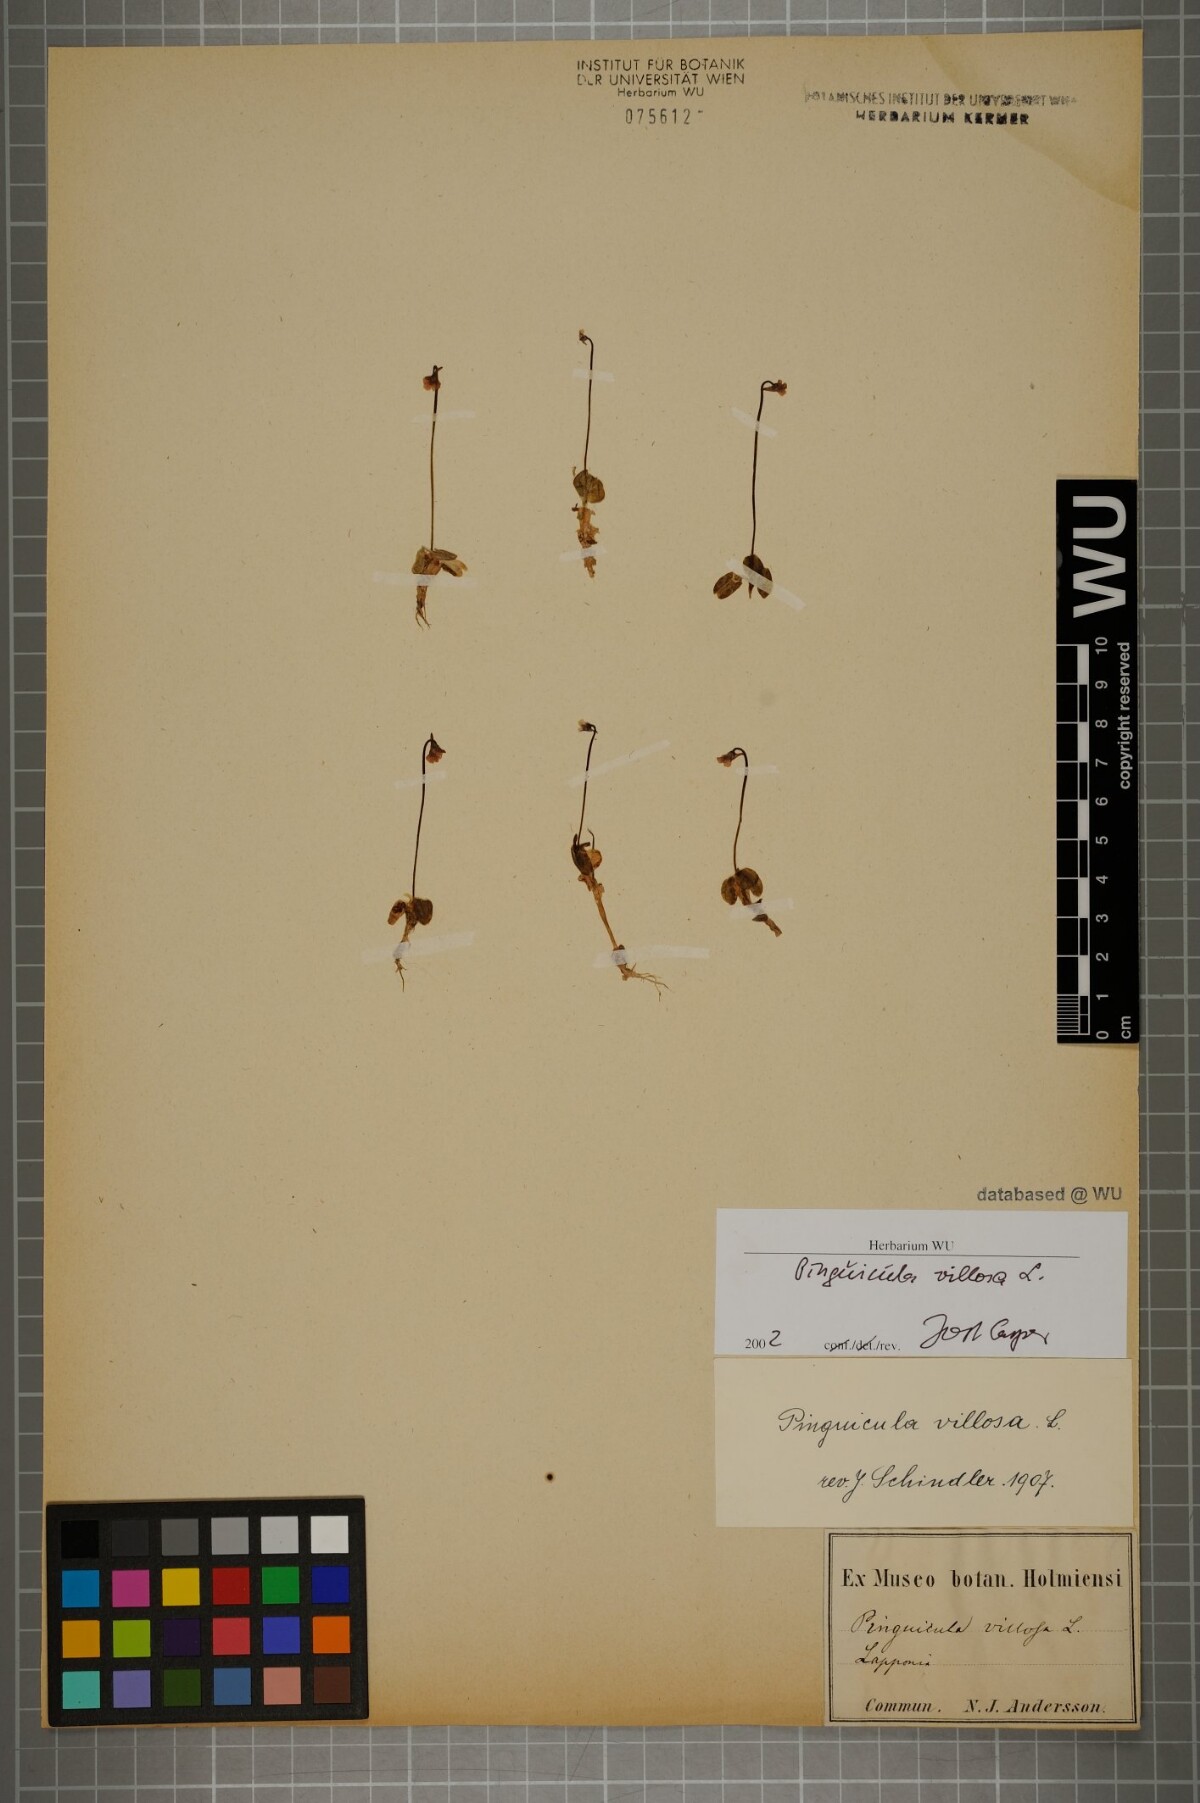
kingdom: Plantae
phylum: Tracheophyta
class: Magnoliopsida
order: Lamiales
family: Lentibulariaceae
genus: Pinguicula
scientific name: Pinguicula villosa
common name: Hairy butterwort
